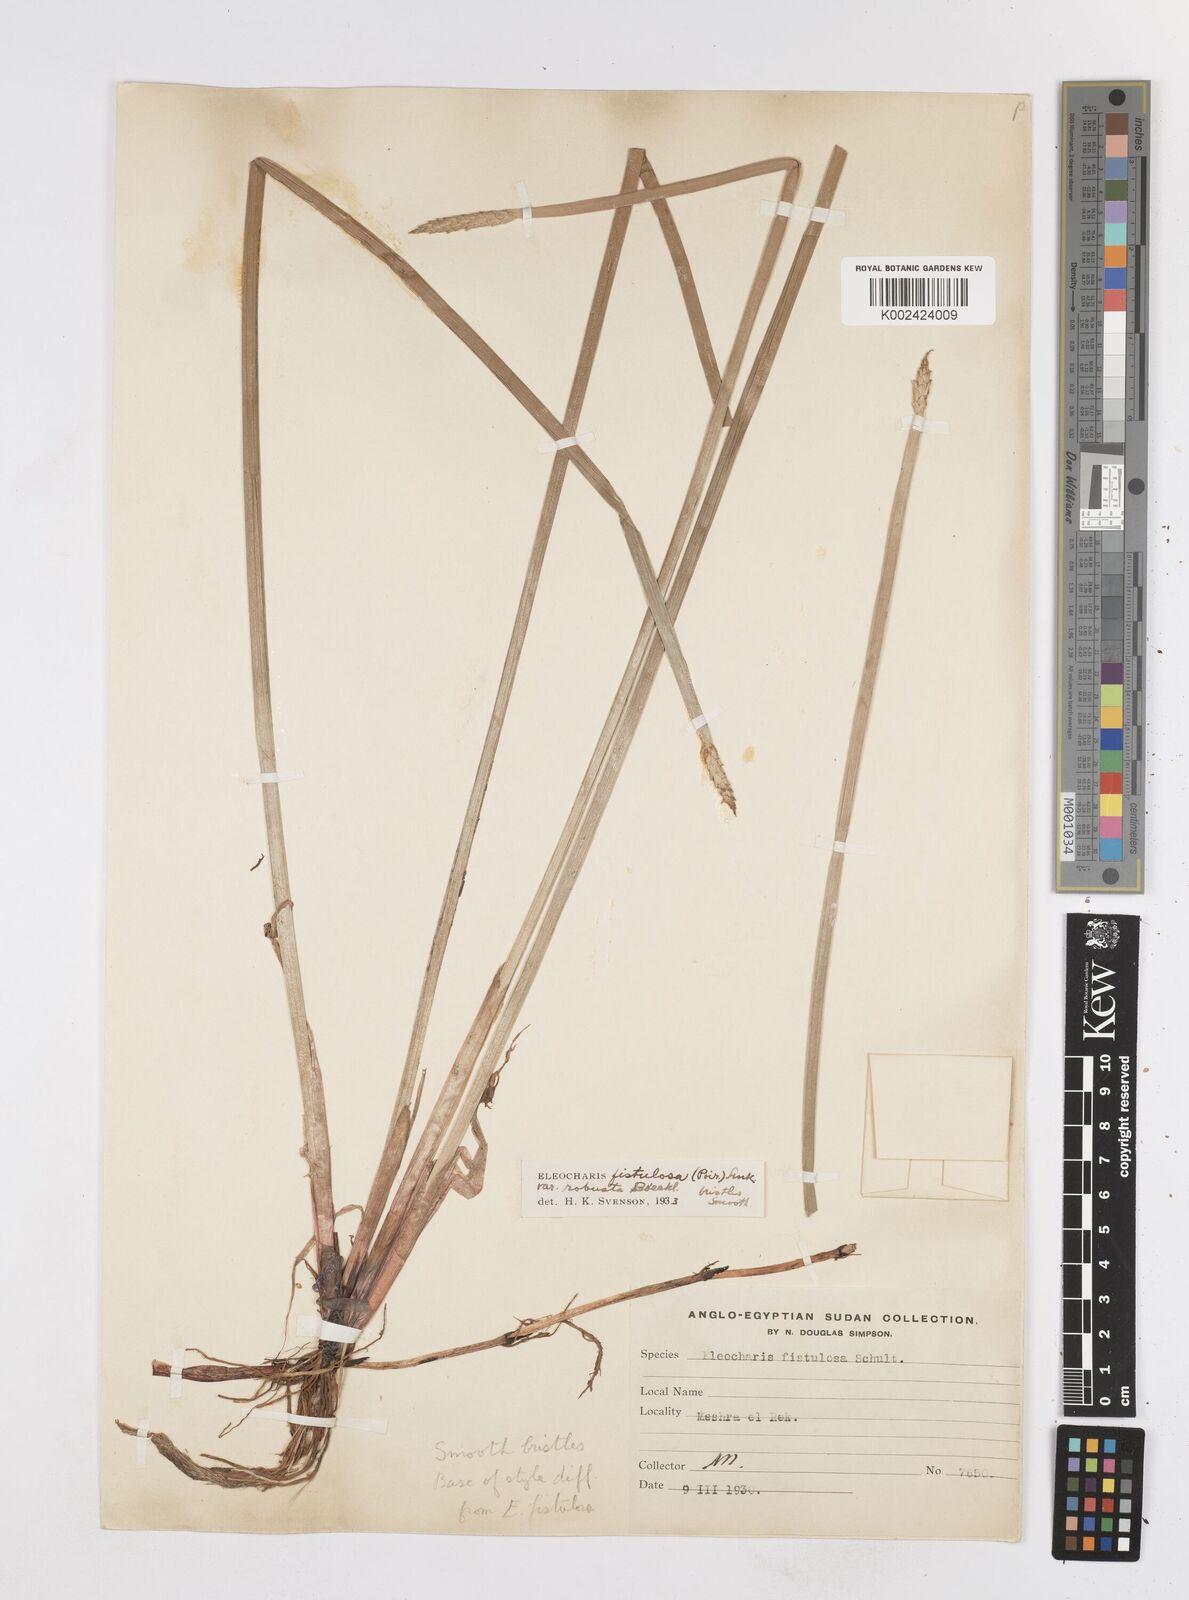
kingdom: Plantae
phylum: Tracheophyta
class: Liliopsida
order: Poales
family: Cyperaceae
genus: Eleocharis
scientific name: Eleocharis acutangula
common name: Acute spikerush
